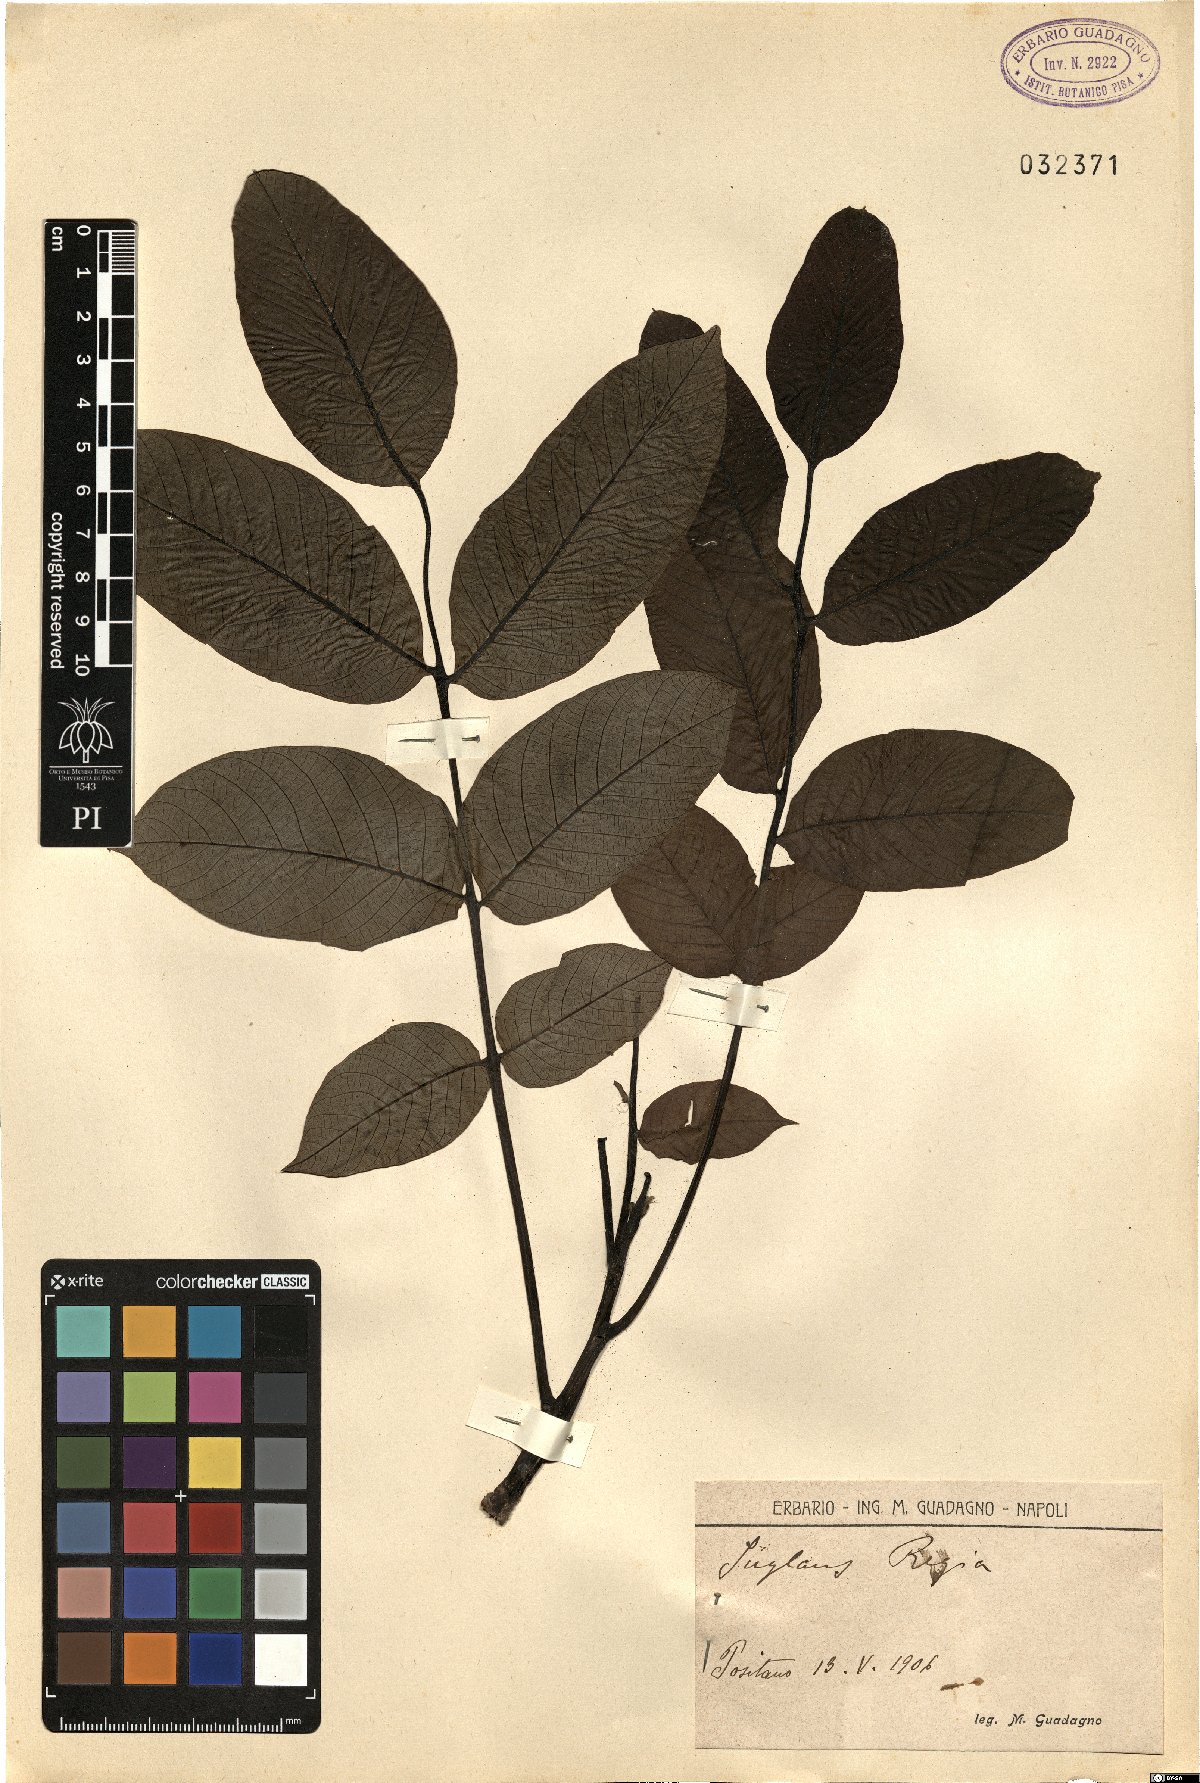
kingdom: Plantae
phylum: Tracheophyta
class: Magnoliopsida
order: Fagales
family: Juglandaceae
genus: Juglans
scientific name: Juglans regia
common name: Walnut
